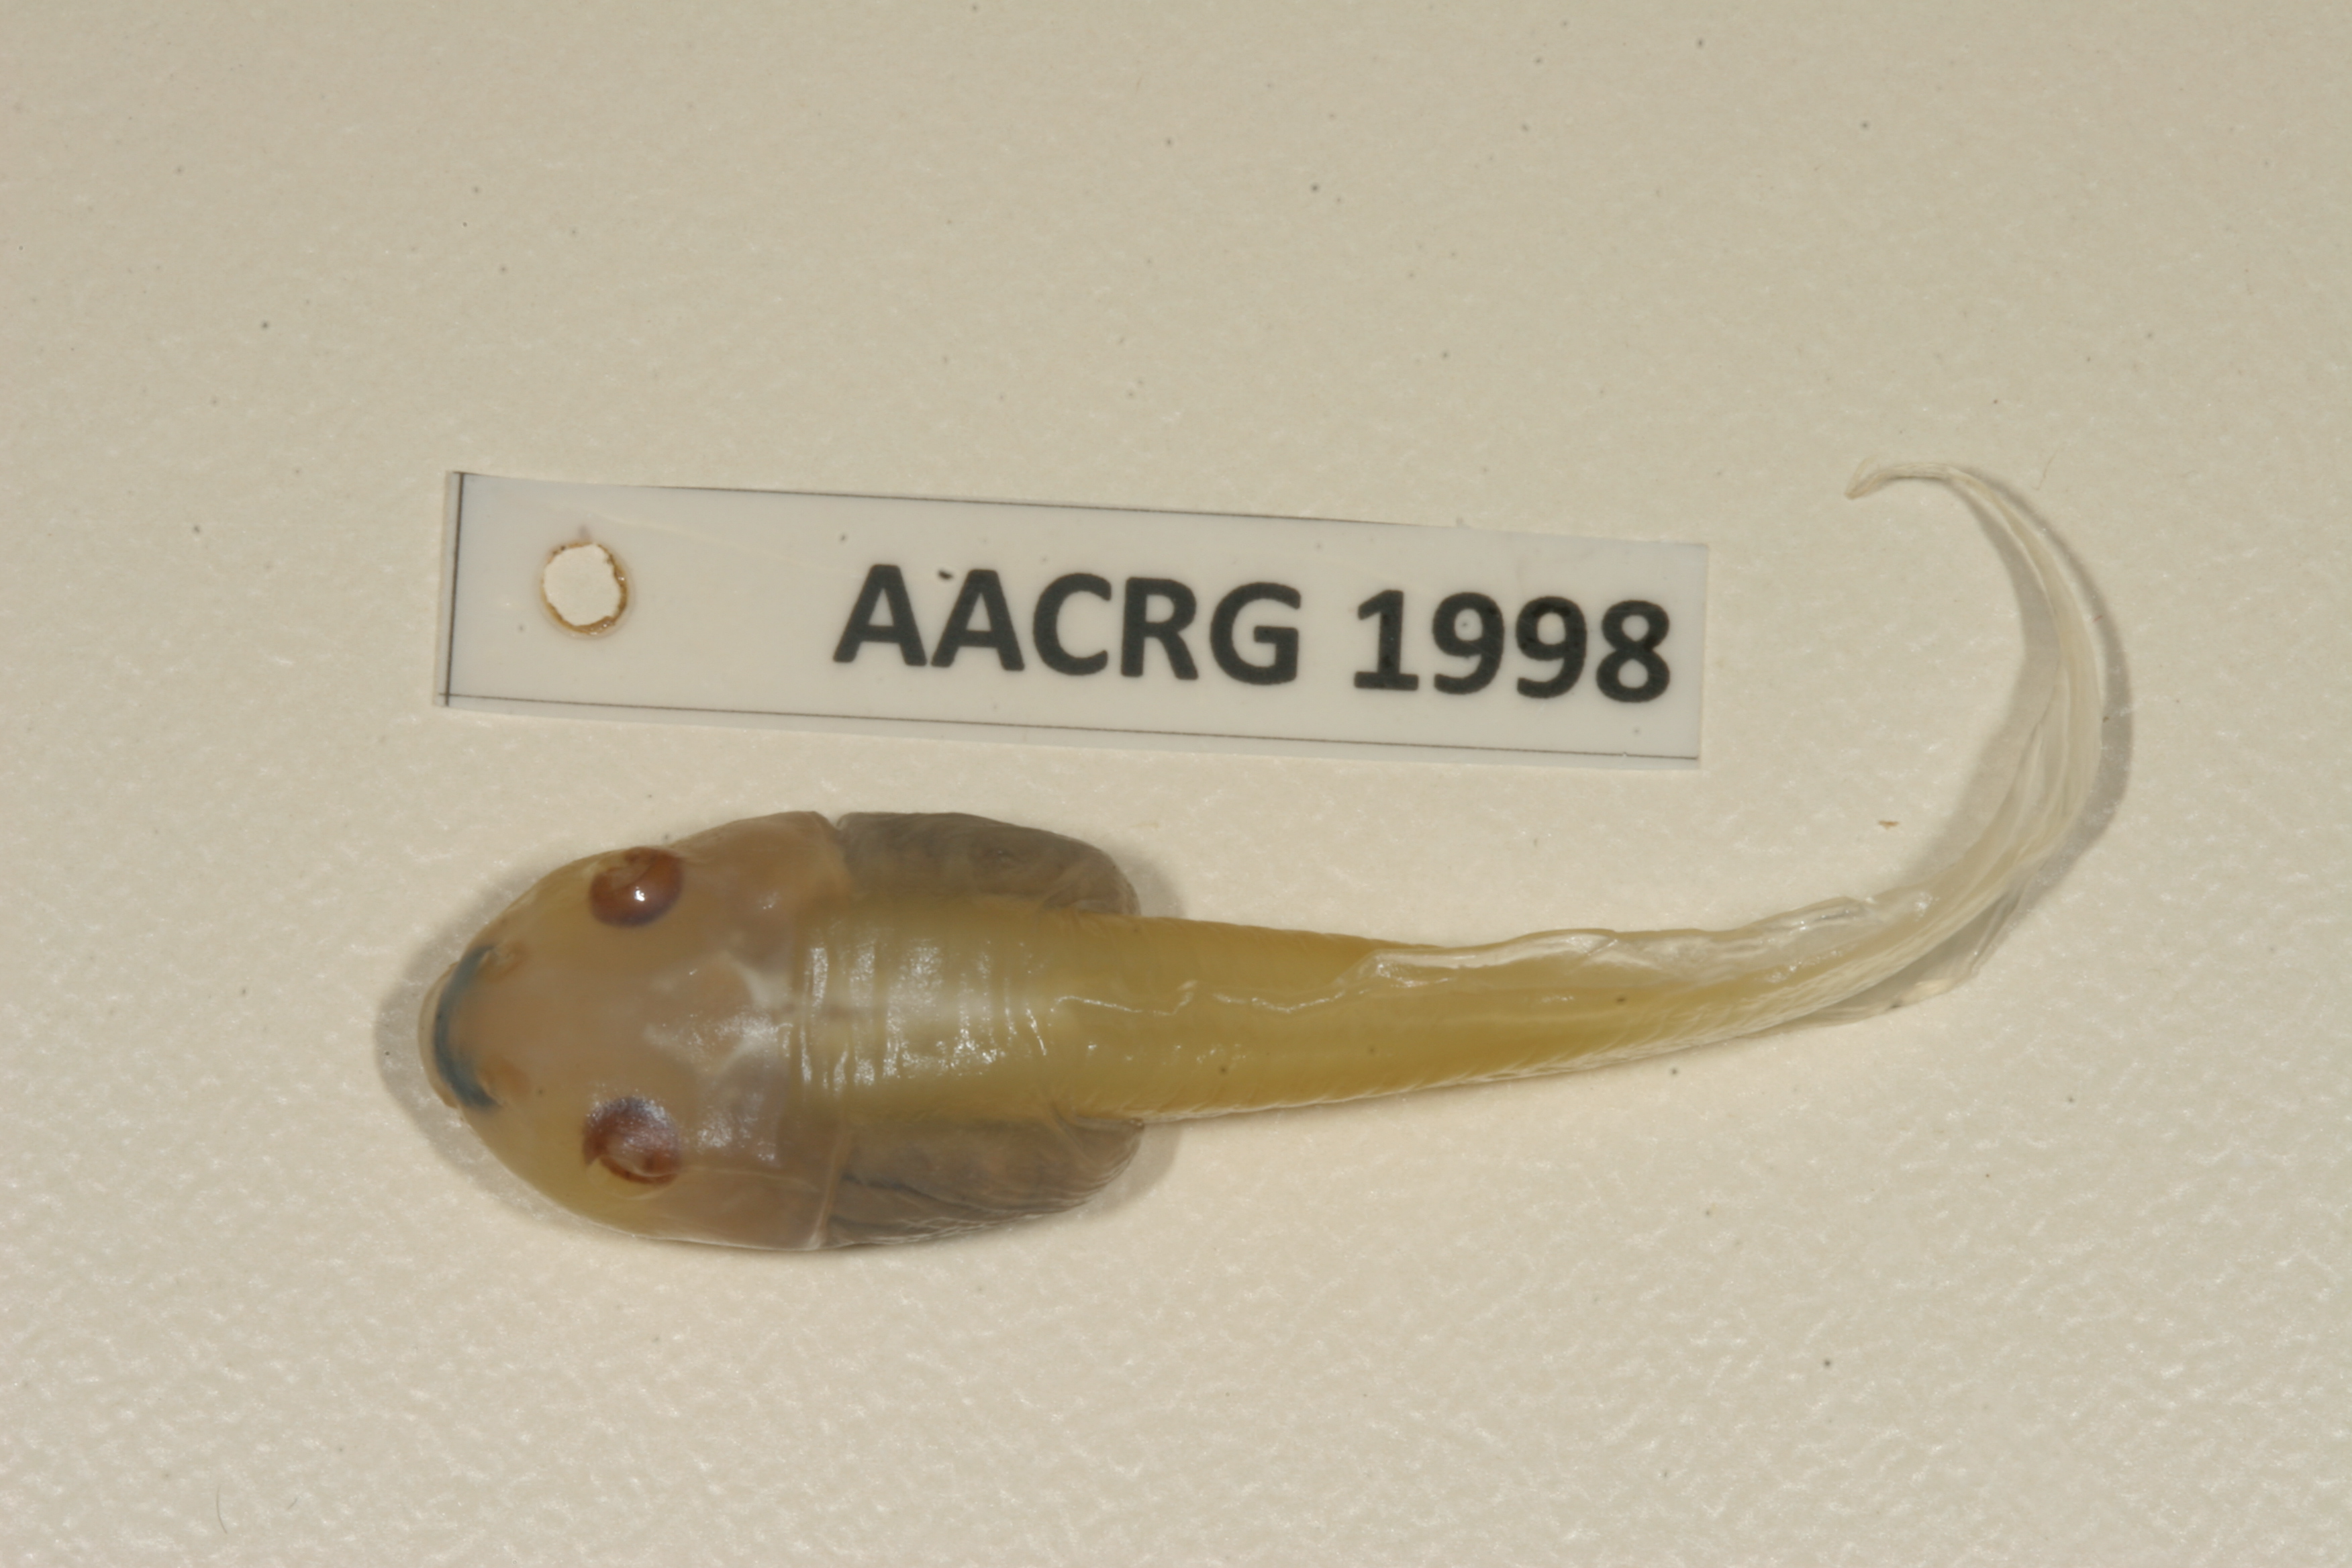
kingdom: Animalia
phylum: Chordata
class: Amphibia
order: Anura
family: Ptychadenidae
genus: Hildebrandtia
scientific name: Hildebrandtia ornata
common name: Ornate frog
